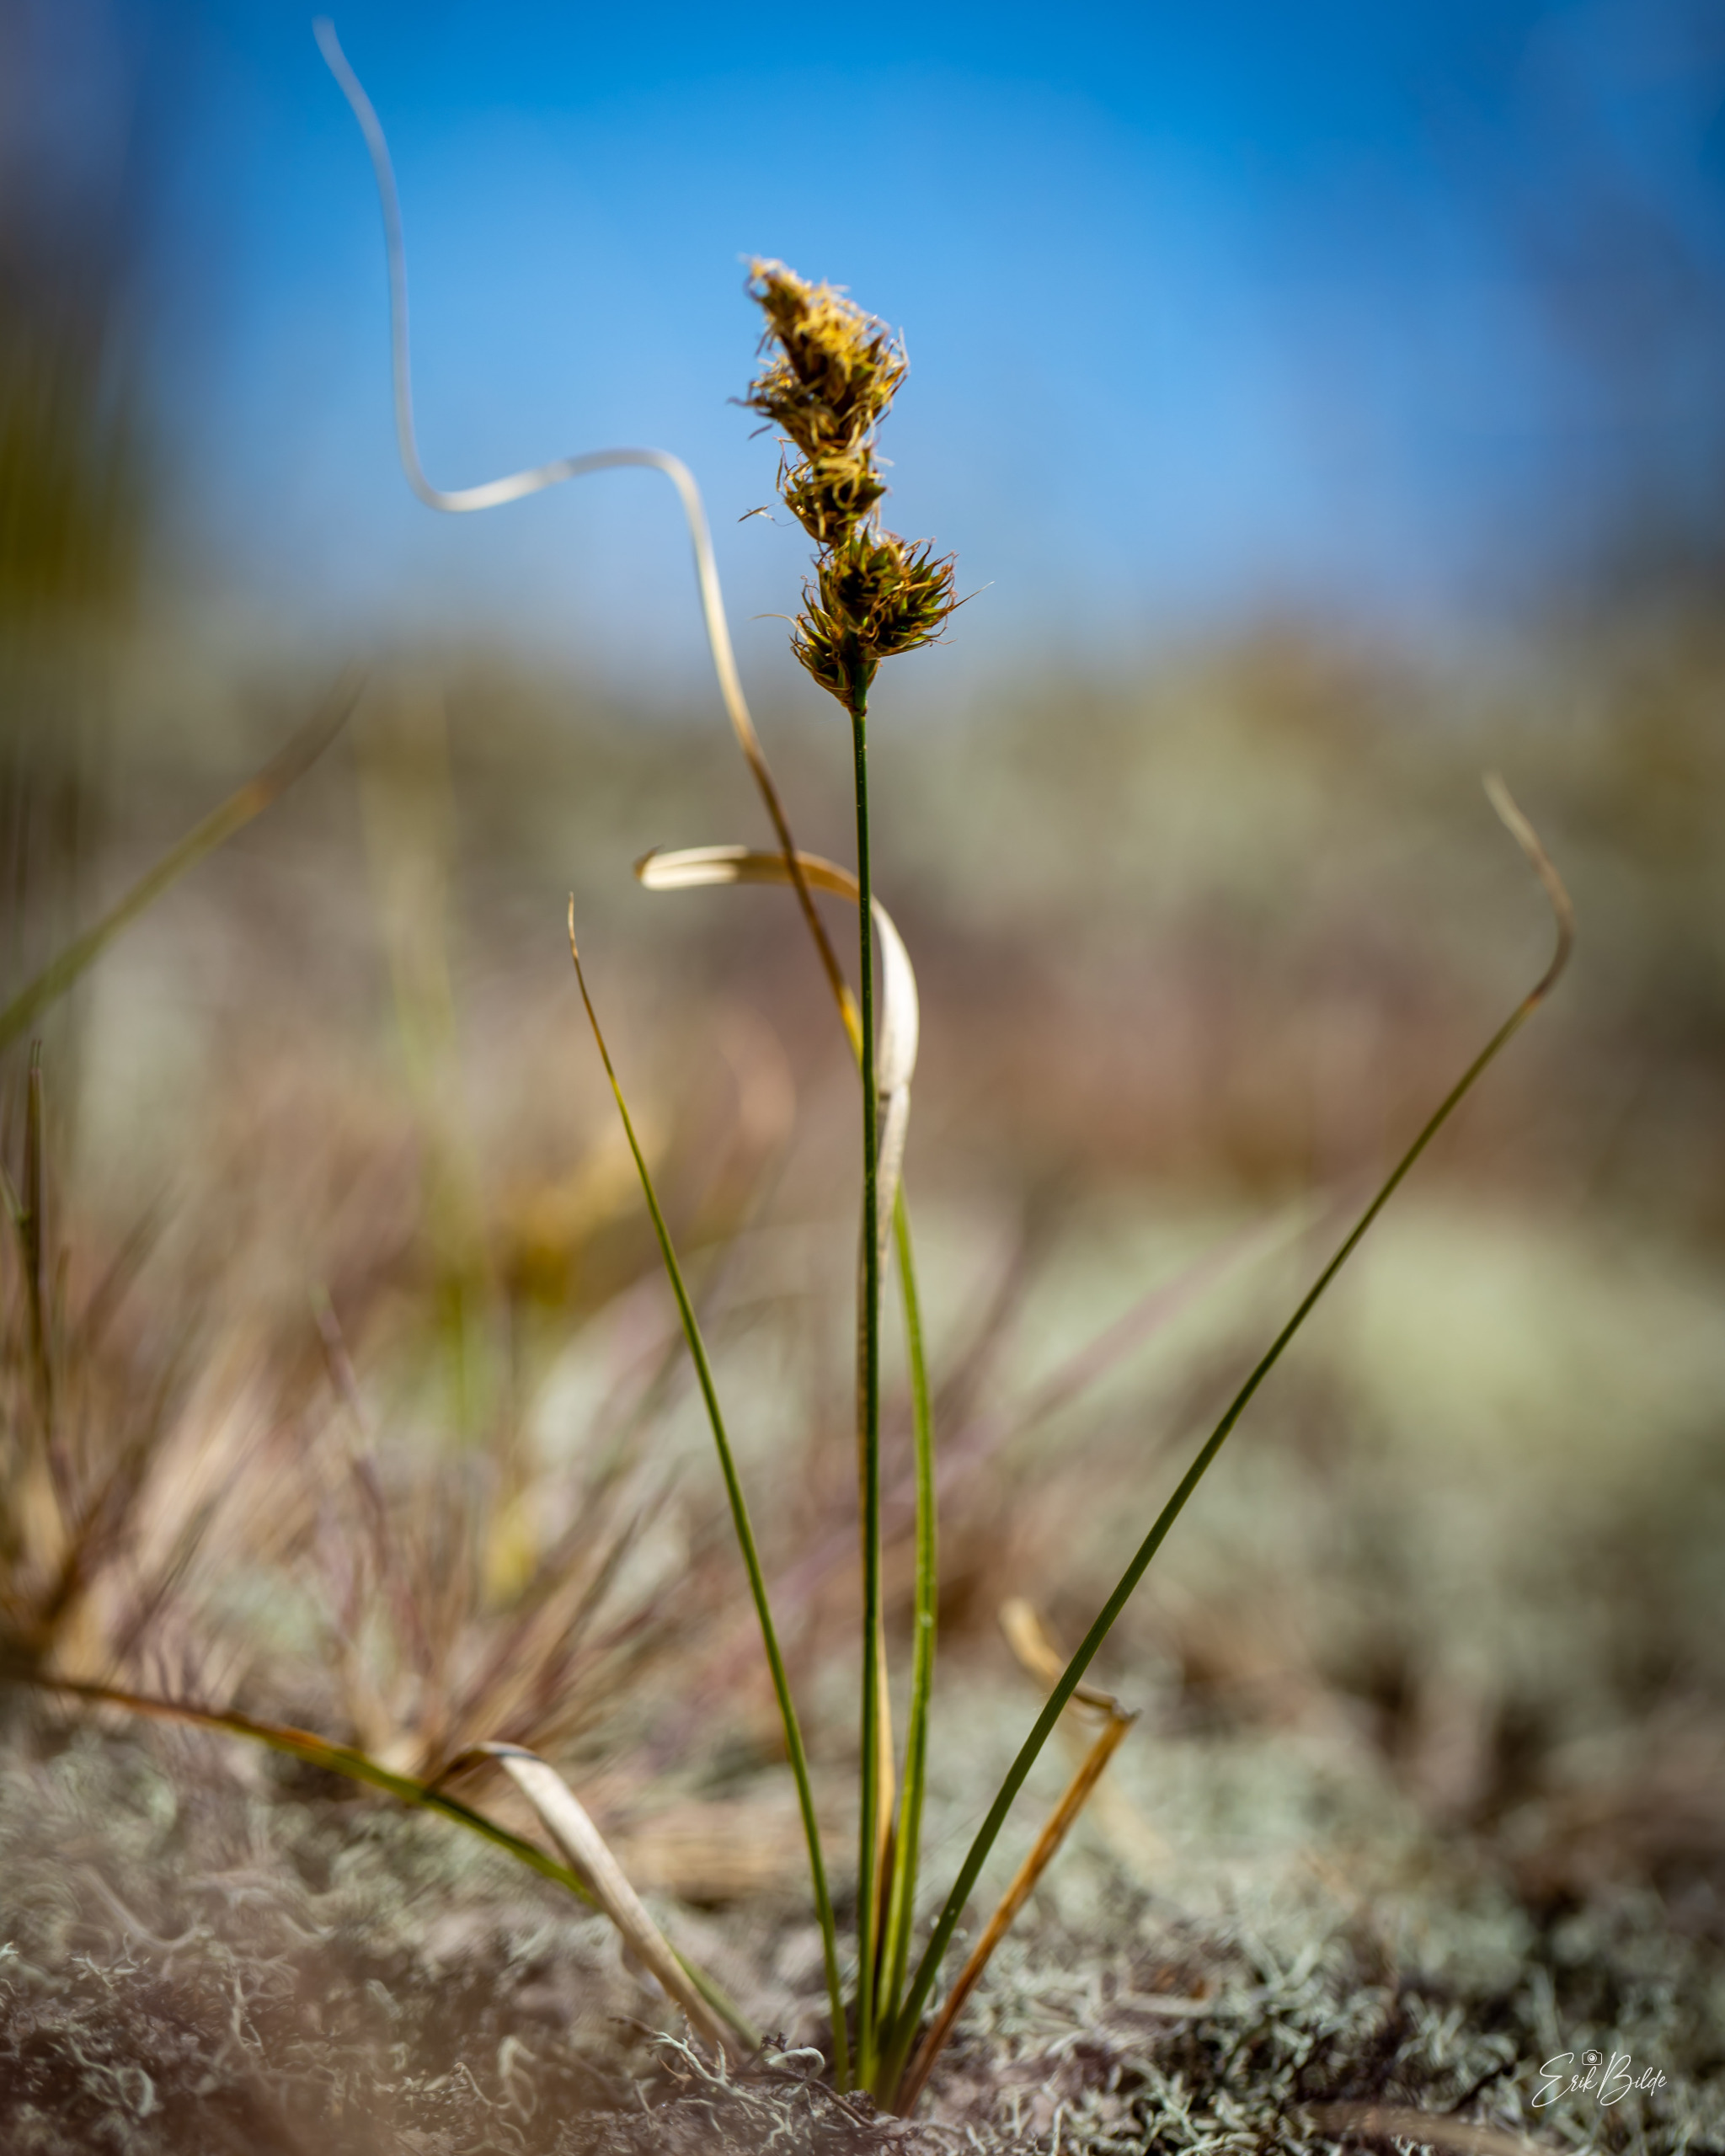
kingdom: Plantae
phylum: Tracheophyta
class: Liliopsida
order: Poales
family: Cyperaceae
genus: Carex
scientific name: Carex arenaria
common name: Sand-star
